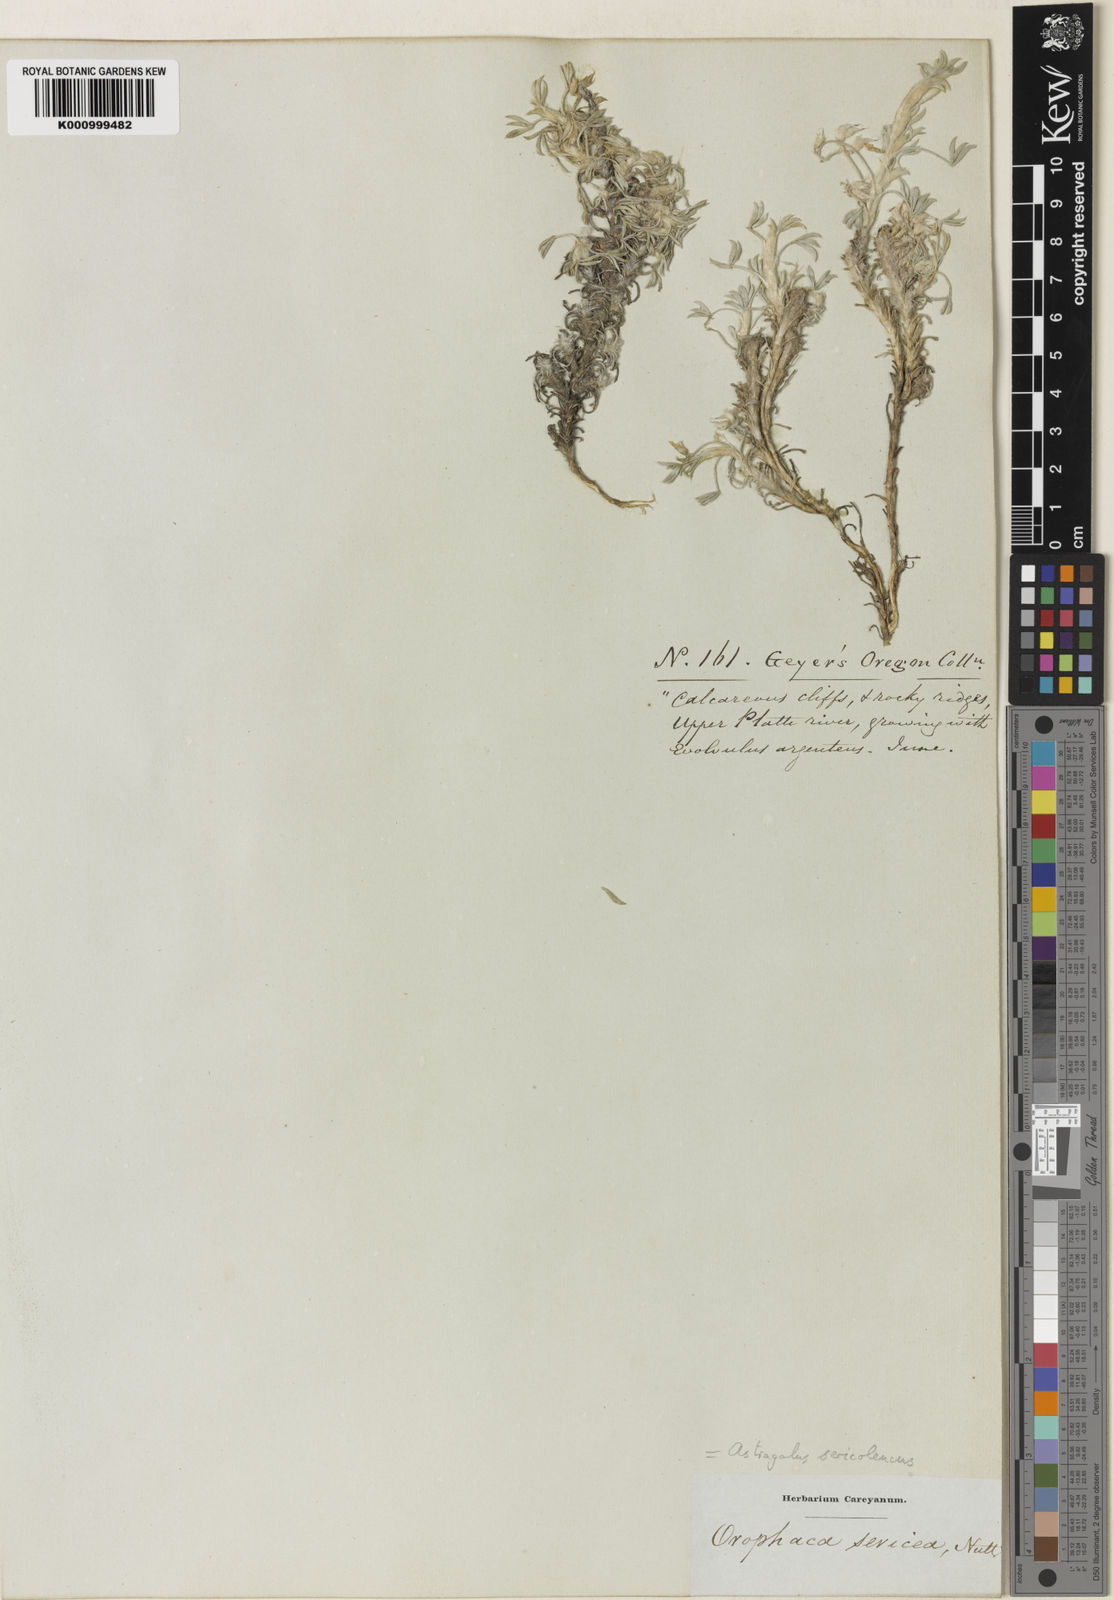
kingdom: Plantae
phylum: Tracheophyta
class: Magnoliopsida
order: Fabales
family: Fabaceae
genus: Astragalus
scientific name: Astragalus sericoleucus
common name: Silky orophaca
